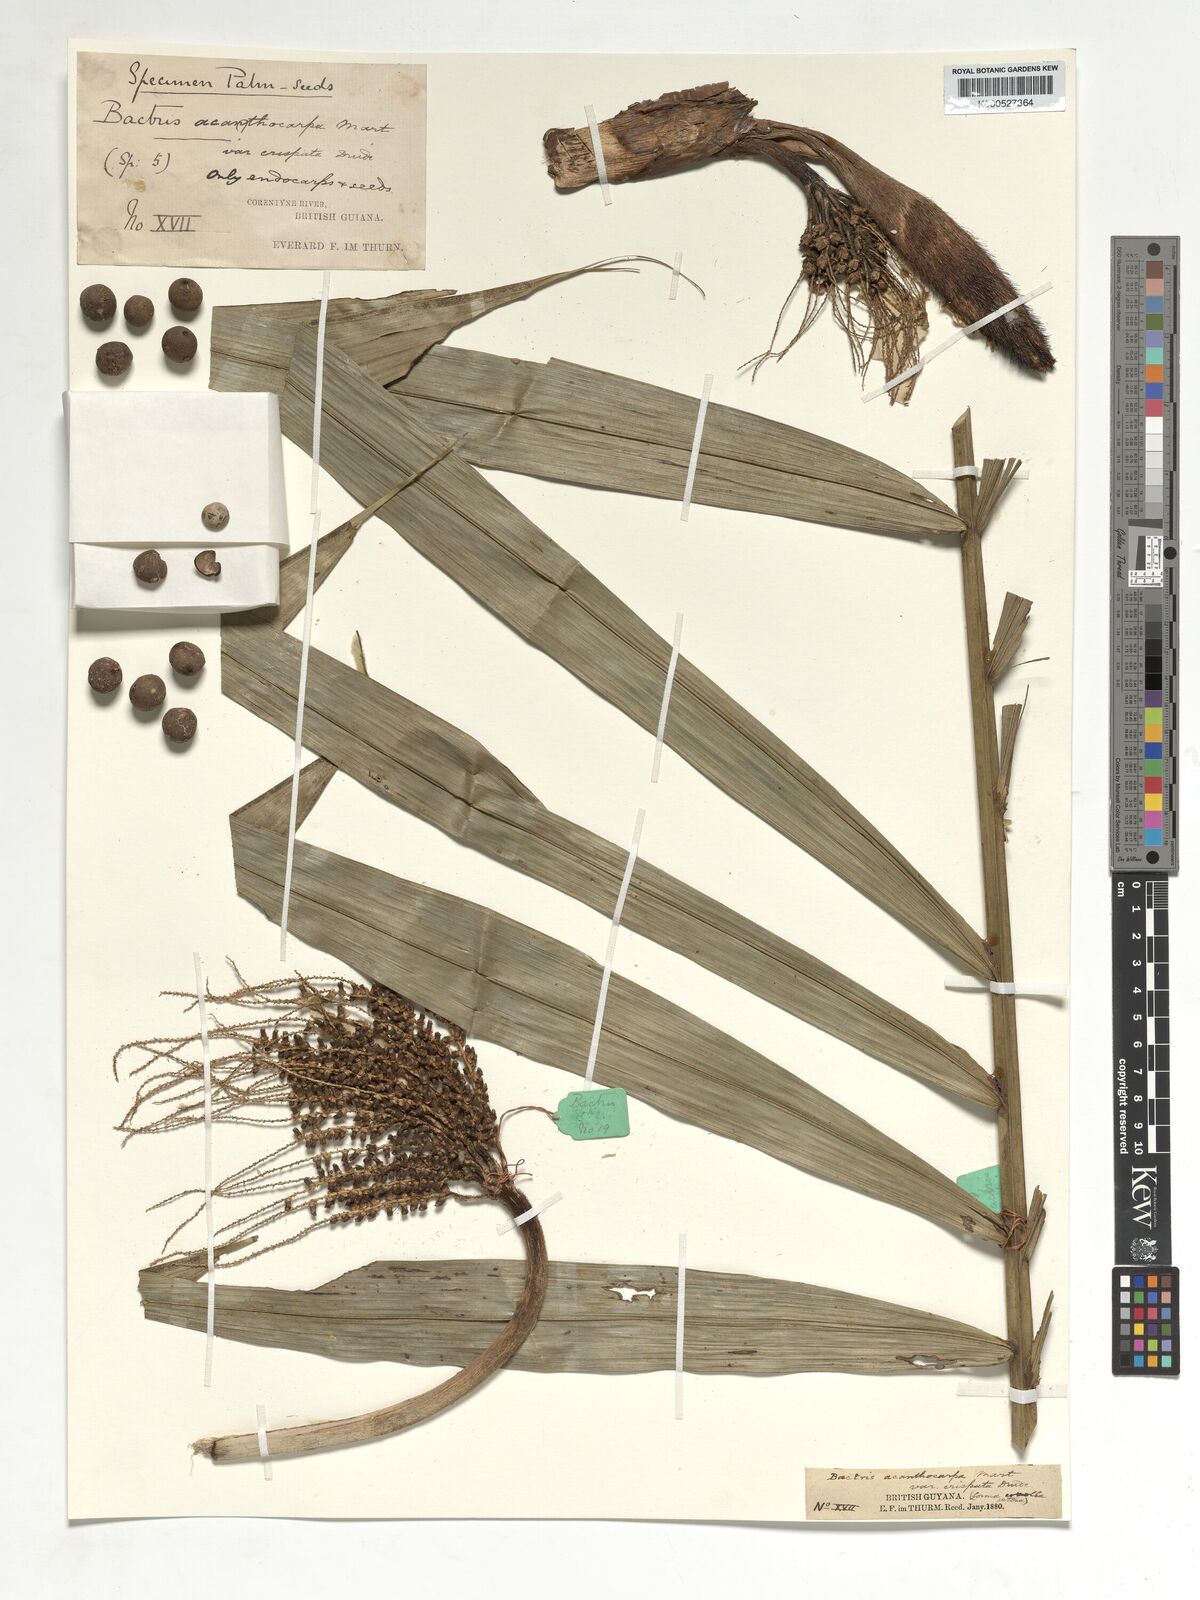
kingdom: Plantae
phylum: Tracheophyta
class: Liliopsida
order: Arecales
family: Arecaceae
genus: Bactris
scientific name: Bactris acanthocarpa
